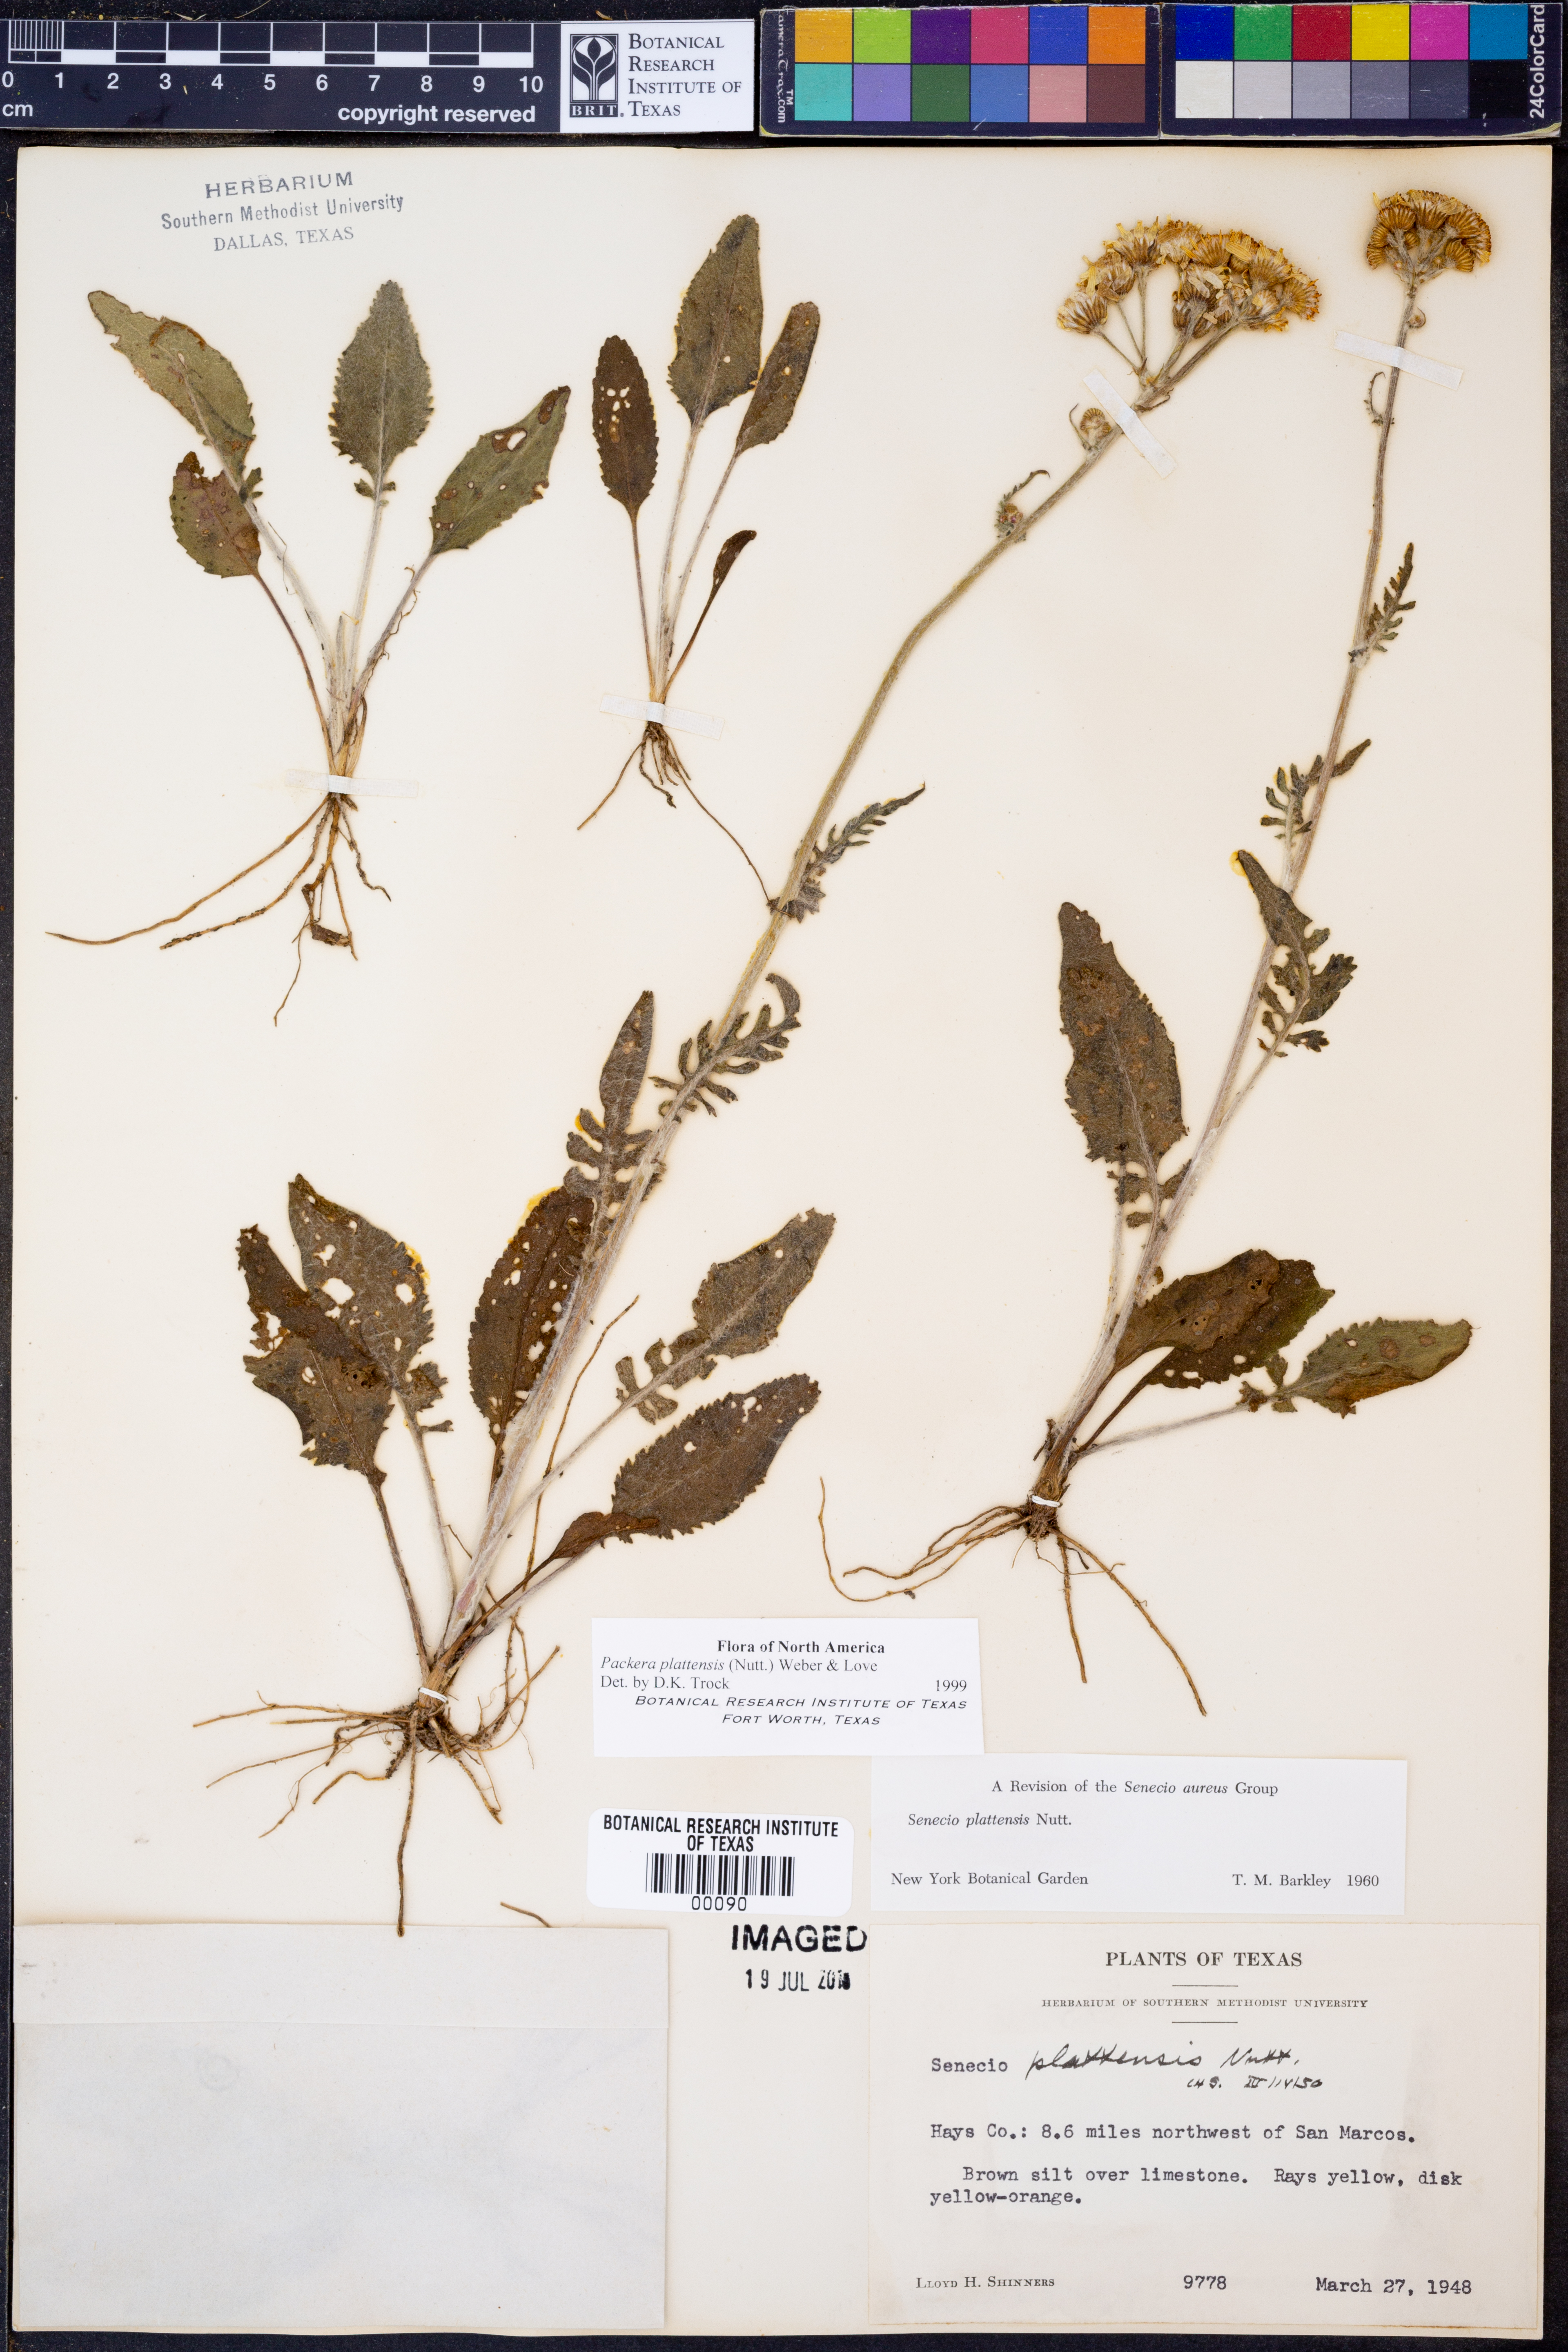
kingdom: Plantae
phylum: Tracheophyta
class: Magnoliopsida
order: Asterales
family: Asteraceae
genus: Packera
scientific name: Packera plattensis
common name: Prairie groundsel
